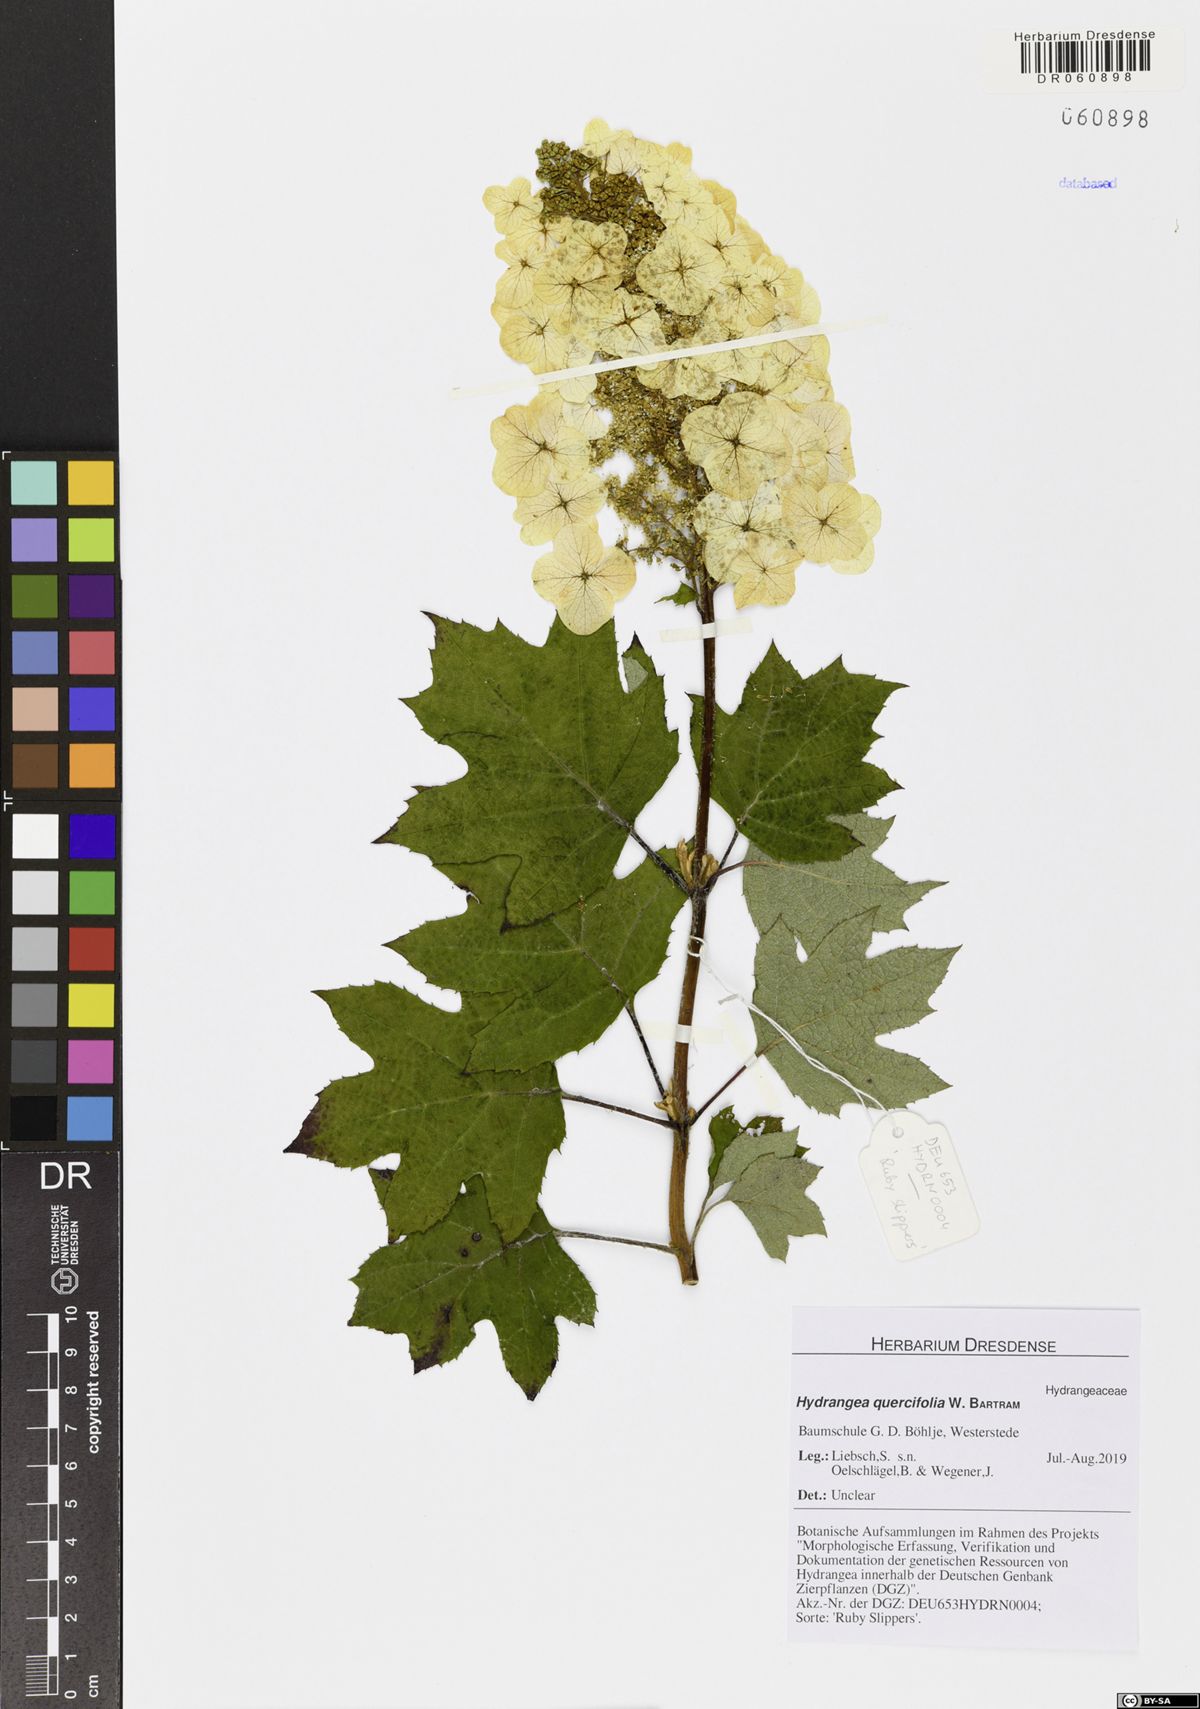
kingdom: Plantae
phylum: Tracheophyta
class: Magnoliopsida
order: Cornales
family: Hydrangeaceae
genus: Hydrangea
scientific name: Hydrangea quercifolia
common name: Oak-leaf hydrangea
